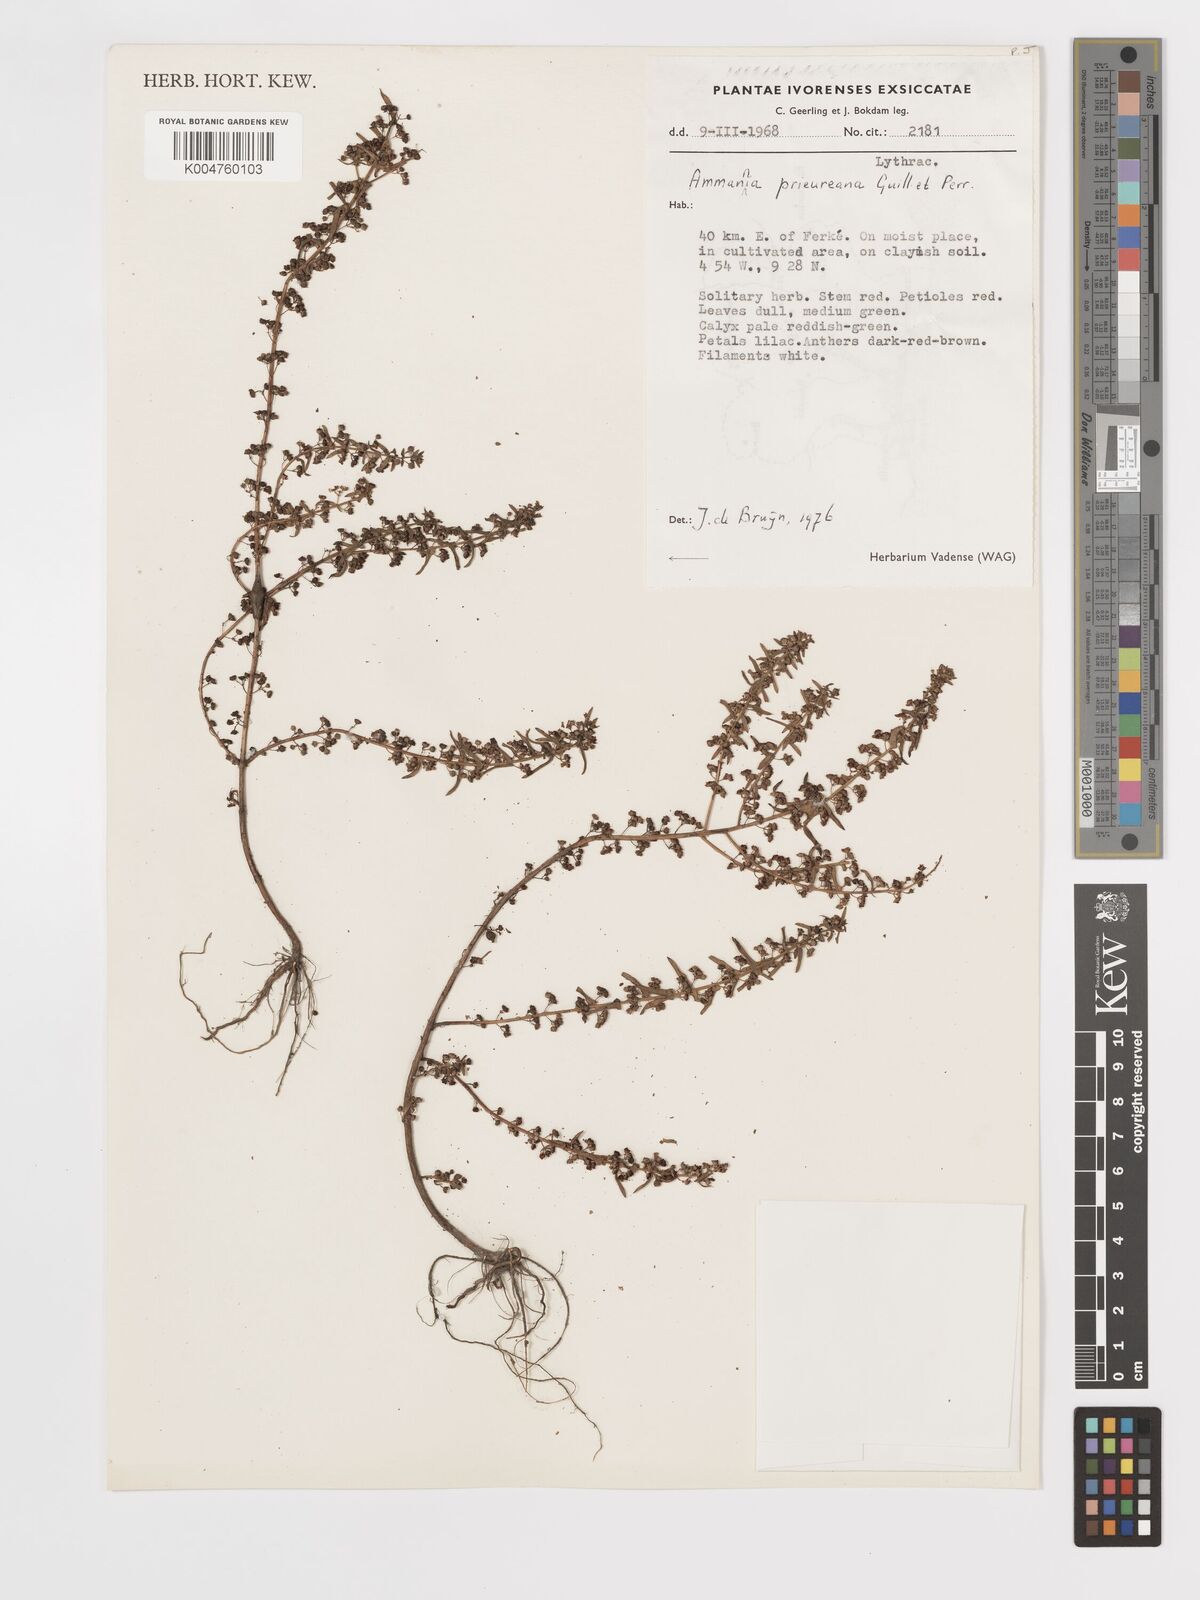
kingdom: Plantae
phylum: Tracheophyta
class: Magnoliopsida
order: Myrtales
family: Lythraceae
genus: Ammannia
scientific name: Ammannia prieuriana
